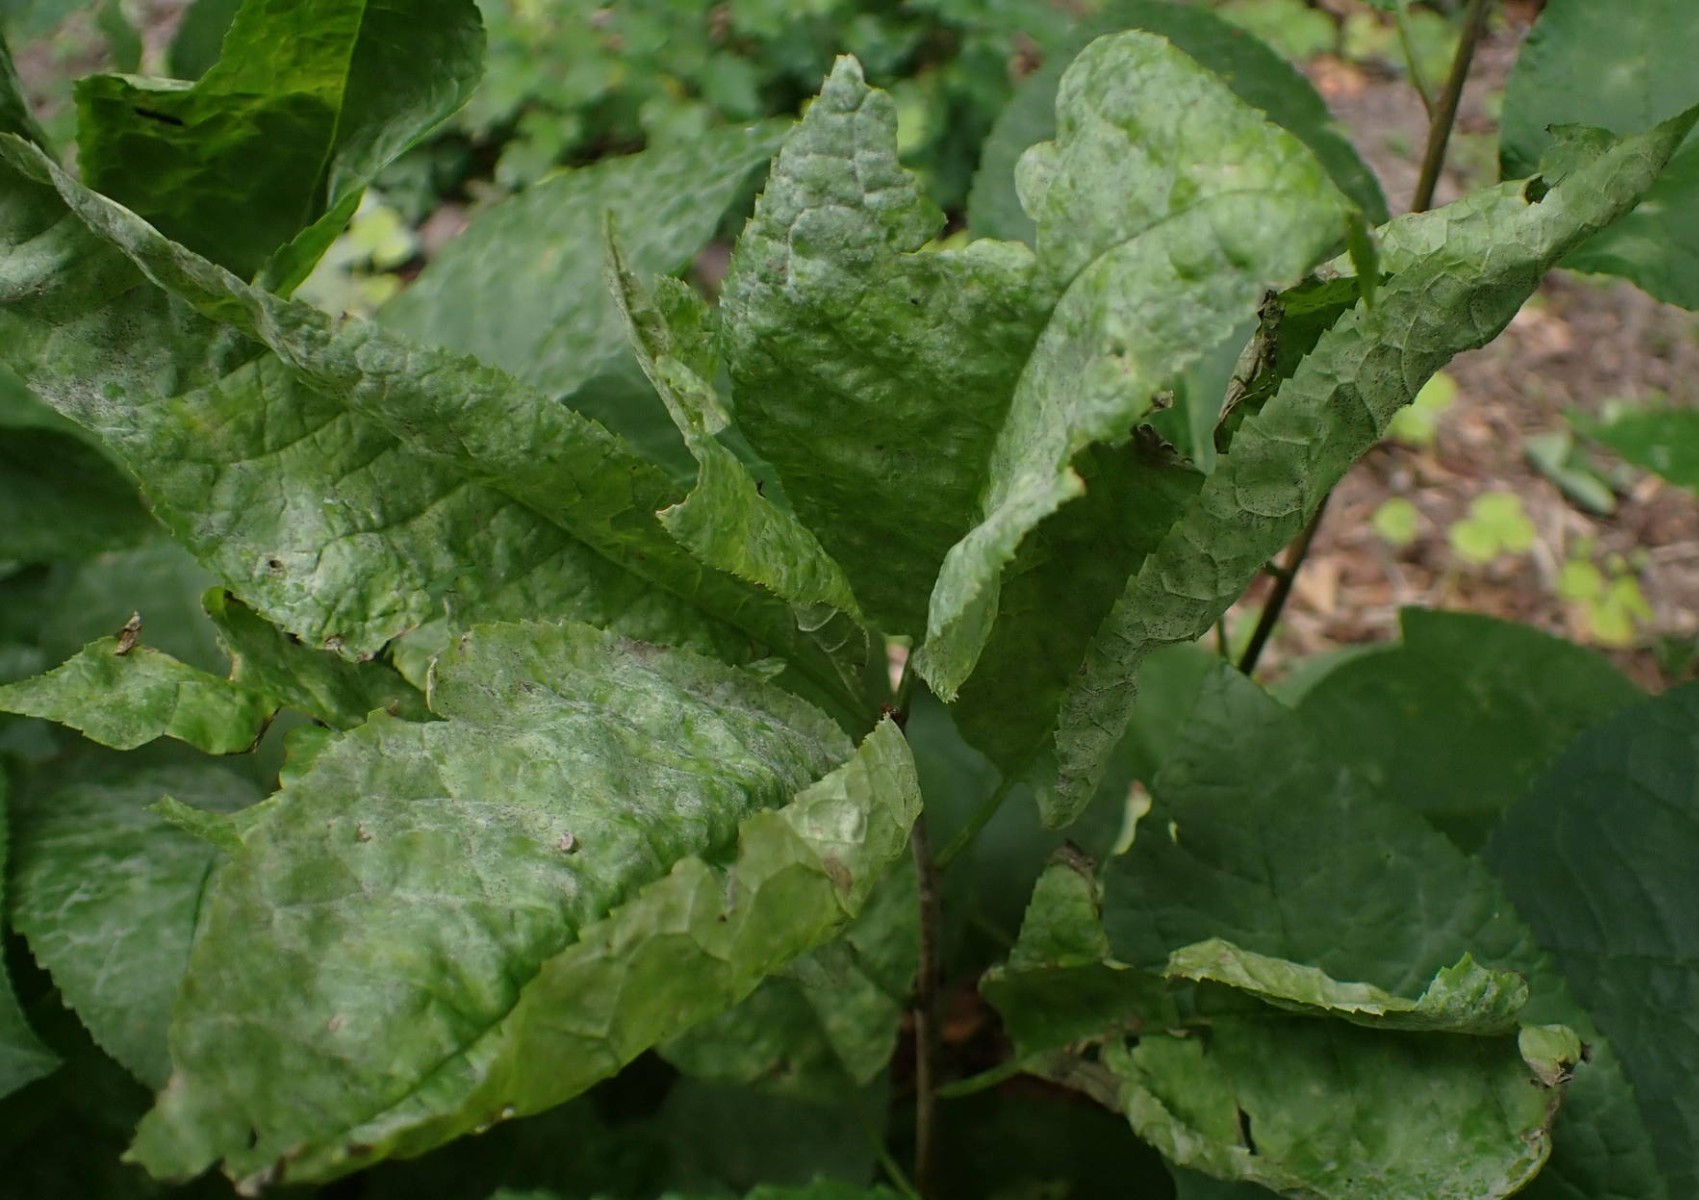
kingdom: Fungi
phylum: Ascomycota
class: Leotiomycetes
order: Helotiales
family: Erysiphaceae
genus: Podosphaera
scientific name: Podosphaera tridactyla
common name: Plum mildew
